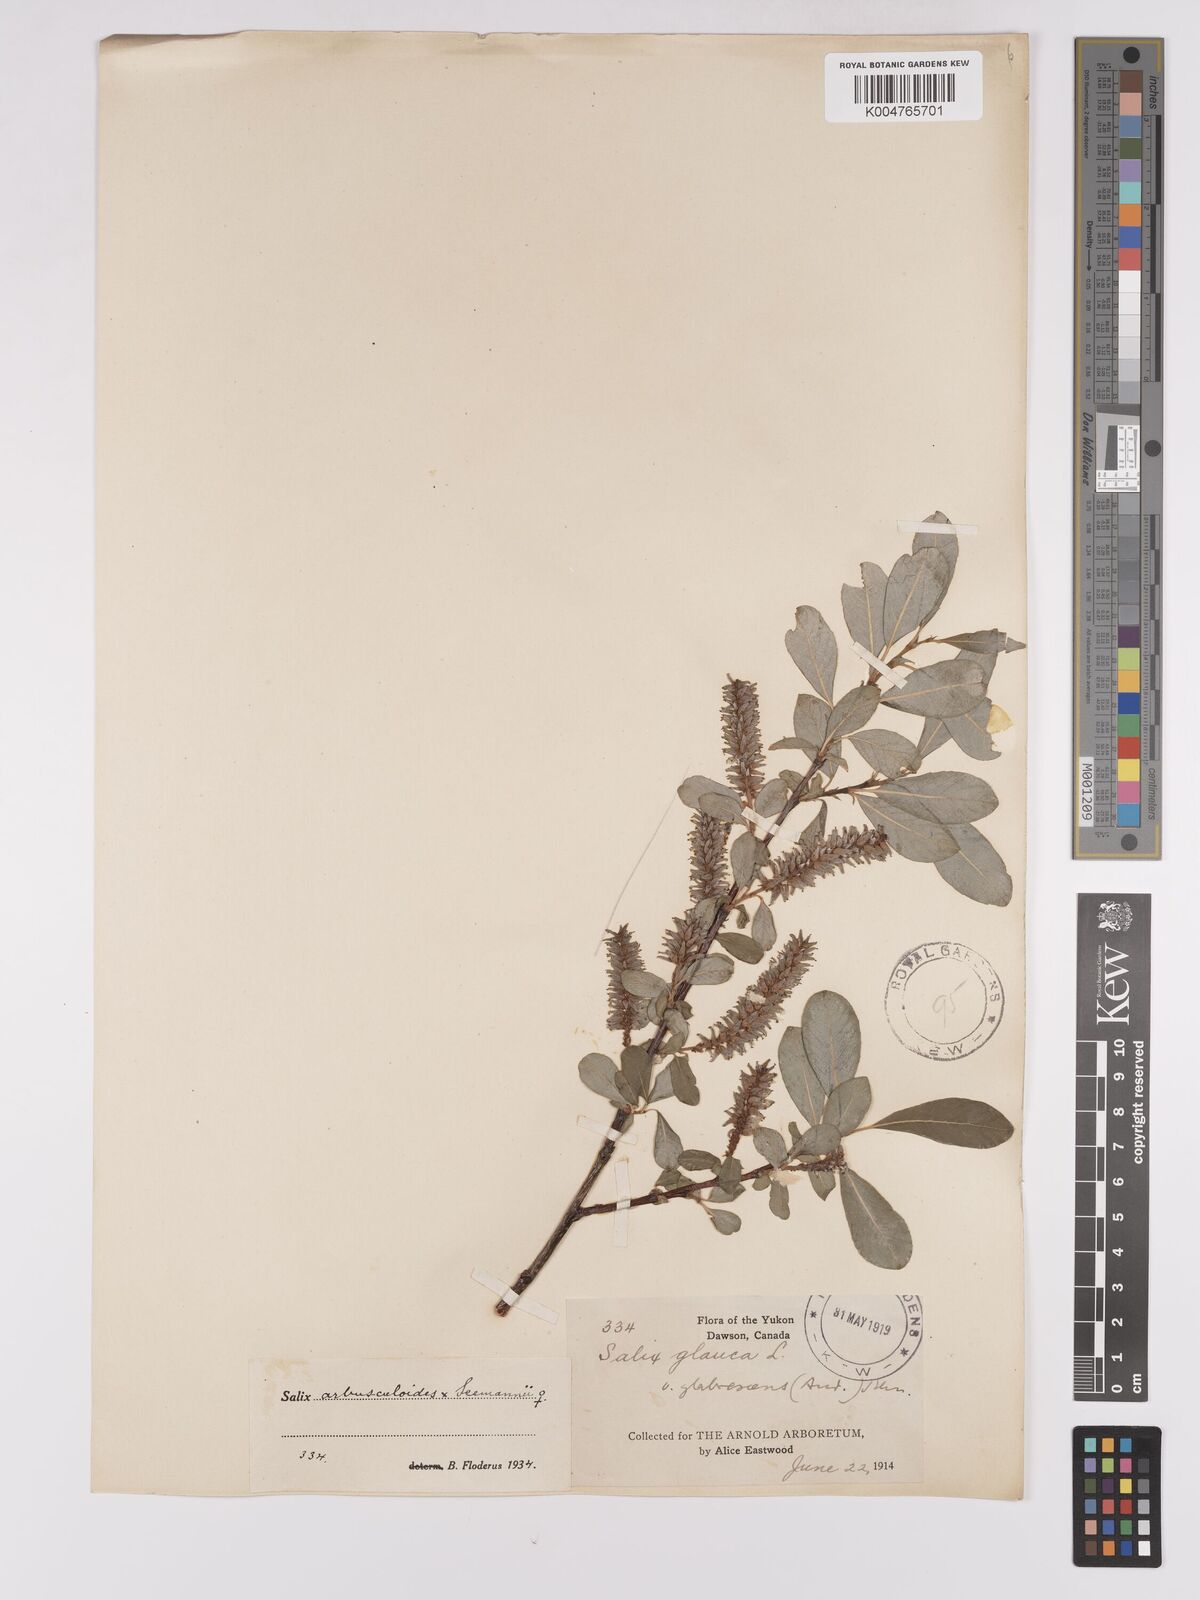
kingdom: Plantae
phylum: Tracheophyta
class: Magnoliopsida
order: Malpighiales
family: Salicaceae
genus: Salix
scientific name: Salix
